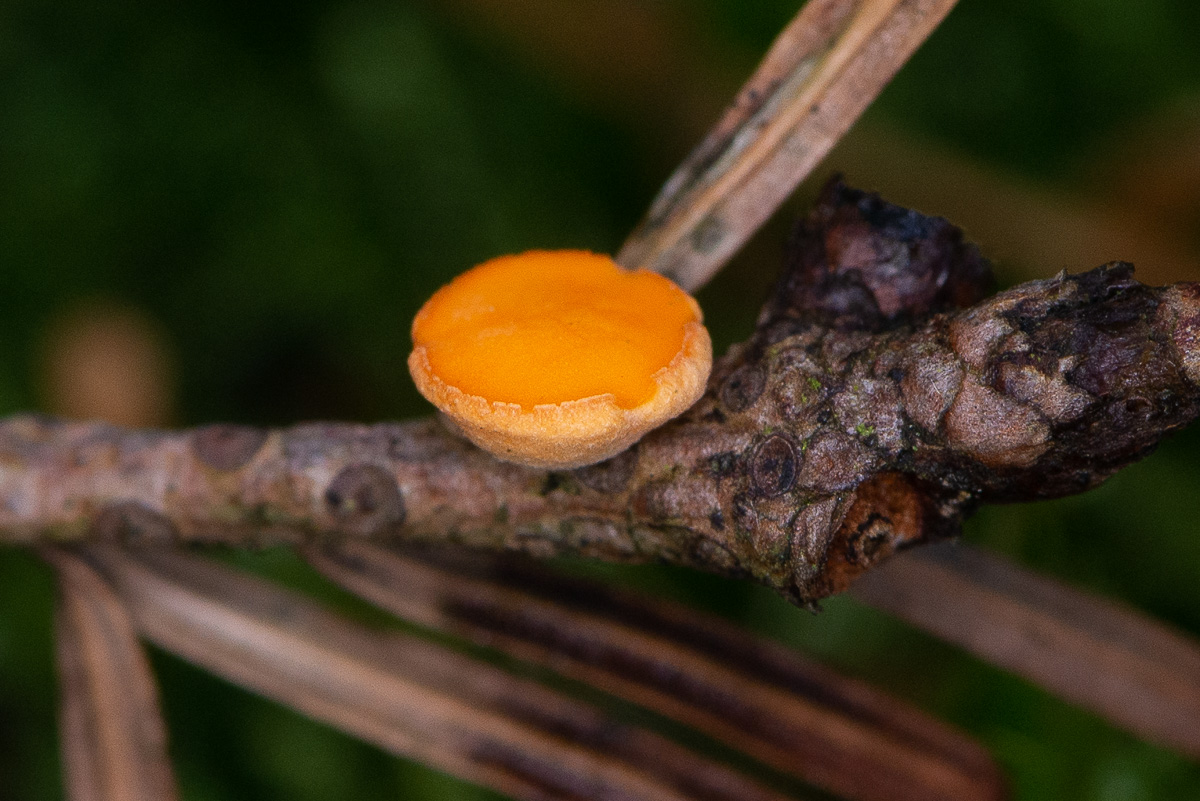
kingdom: Fungi
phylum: Ascomycota
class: Pezizomycetes
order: Pezizales
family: Sarcoscyphaceae
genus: Pithya
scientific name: Pithya vulgaris
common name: stor dukatbæger
